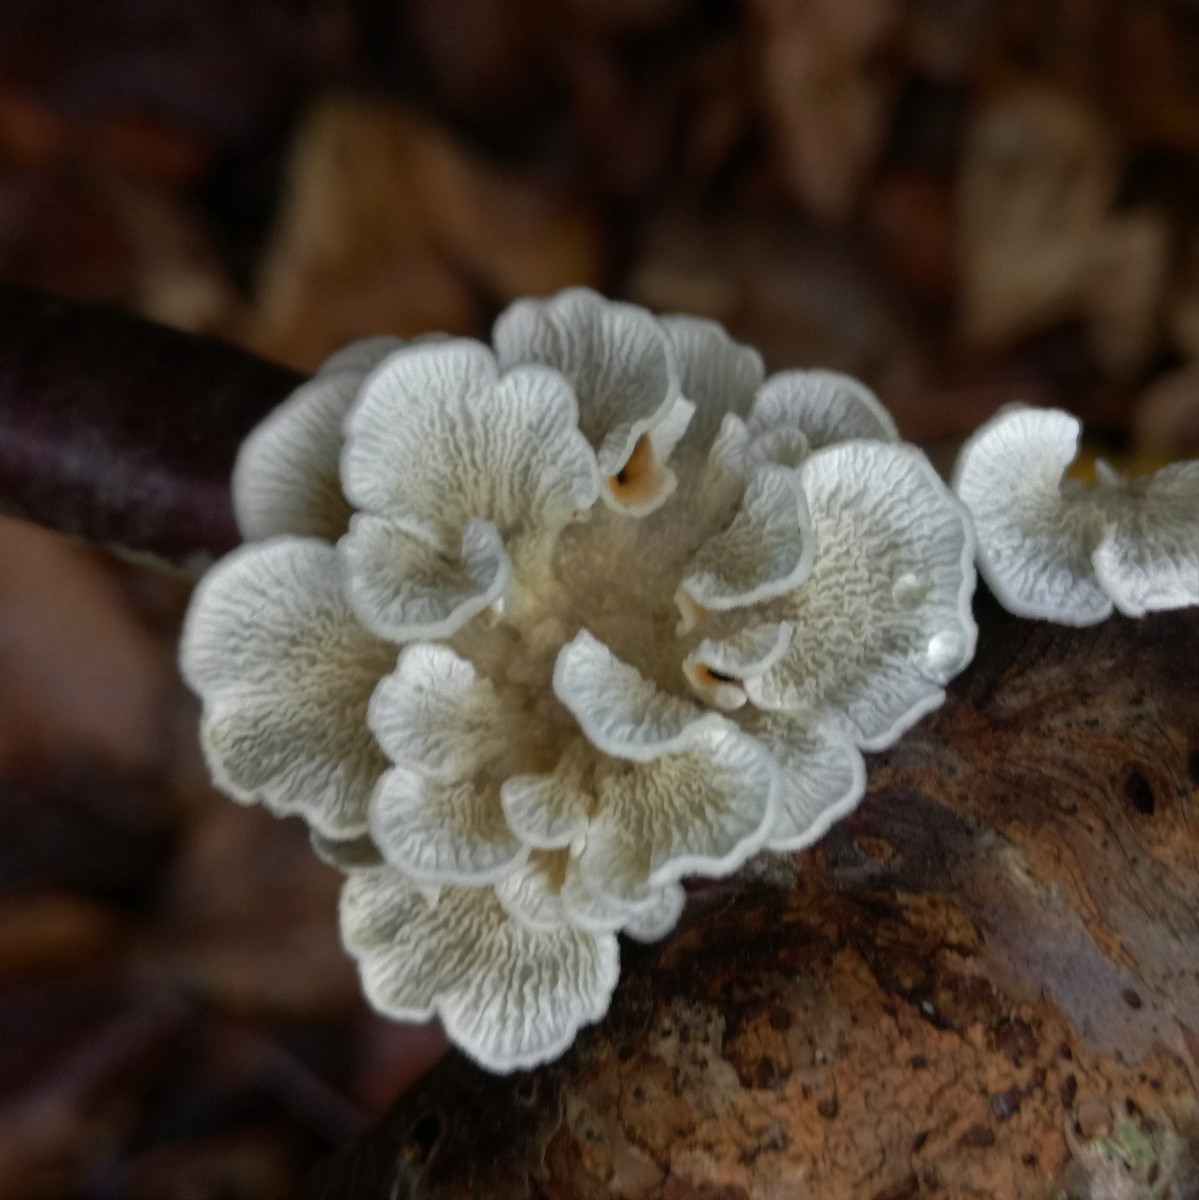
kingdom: Fungi
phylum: Basidiomycota
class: Agaricomycetes
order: Amylocorticiales
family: Amylocorticiaceae
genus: Plicaturopsis
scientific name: Plicaturopsis crispa
